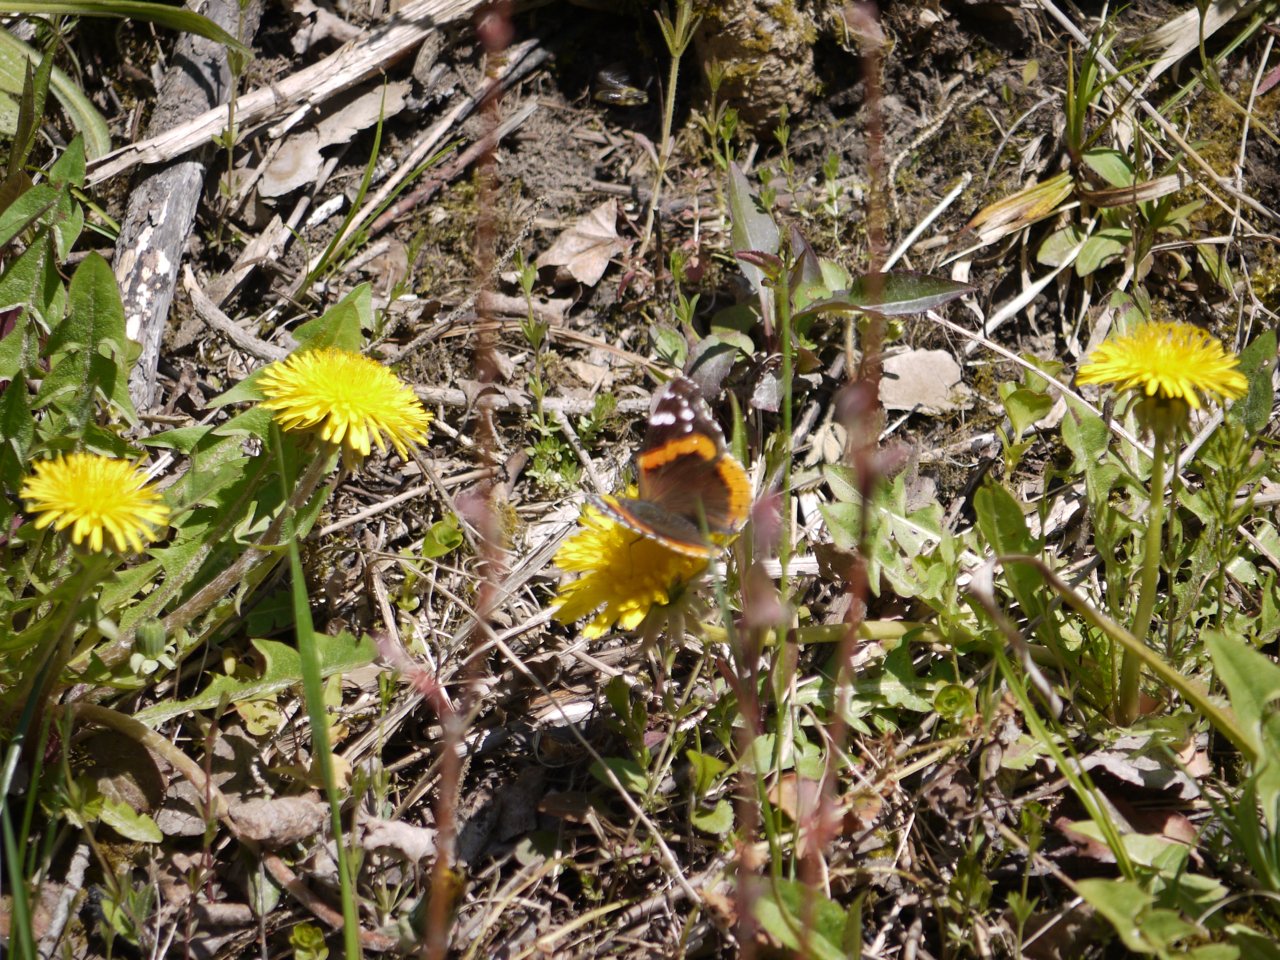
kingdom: Animalia
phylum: Arthropoda
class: Insecta
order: Lepidoptera
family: Nymphalidae
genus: Vanessa
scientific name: Vanessa atalanta
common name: Red Admiral
